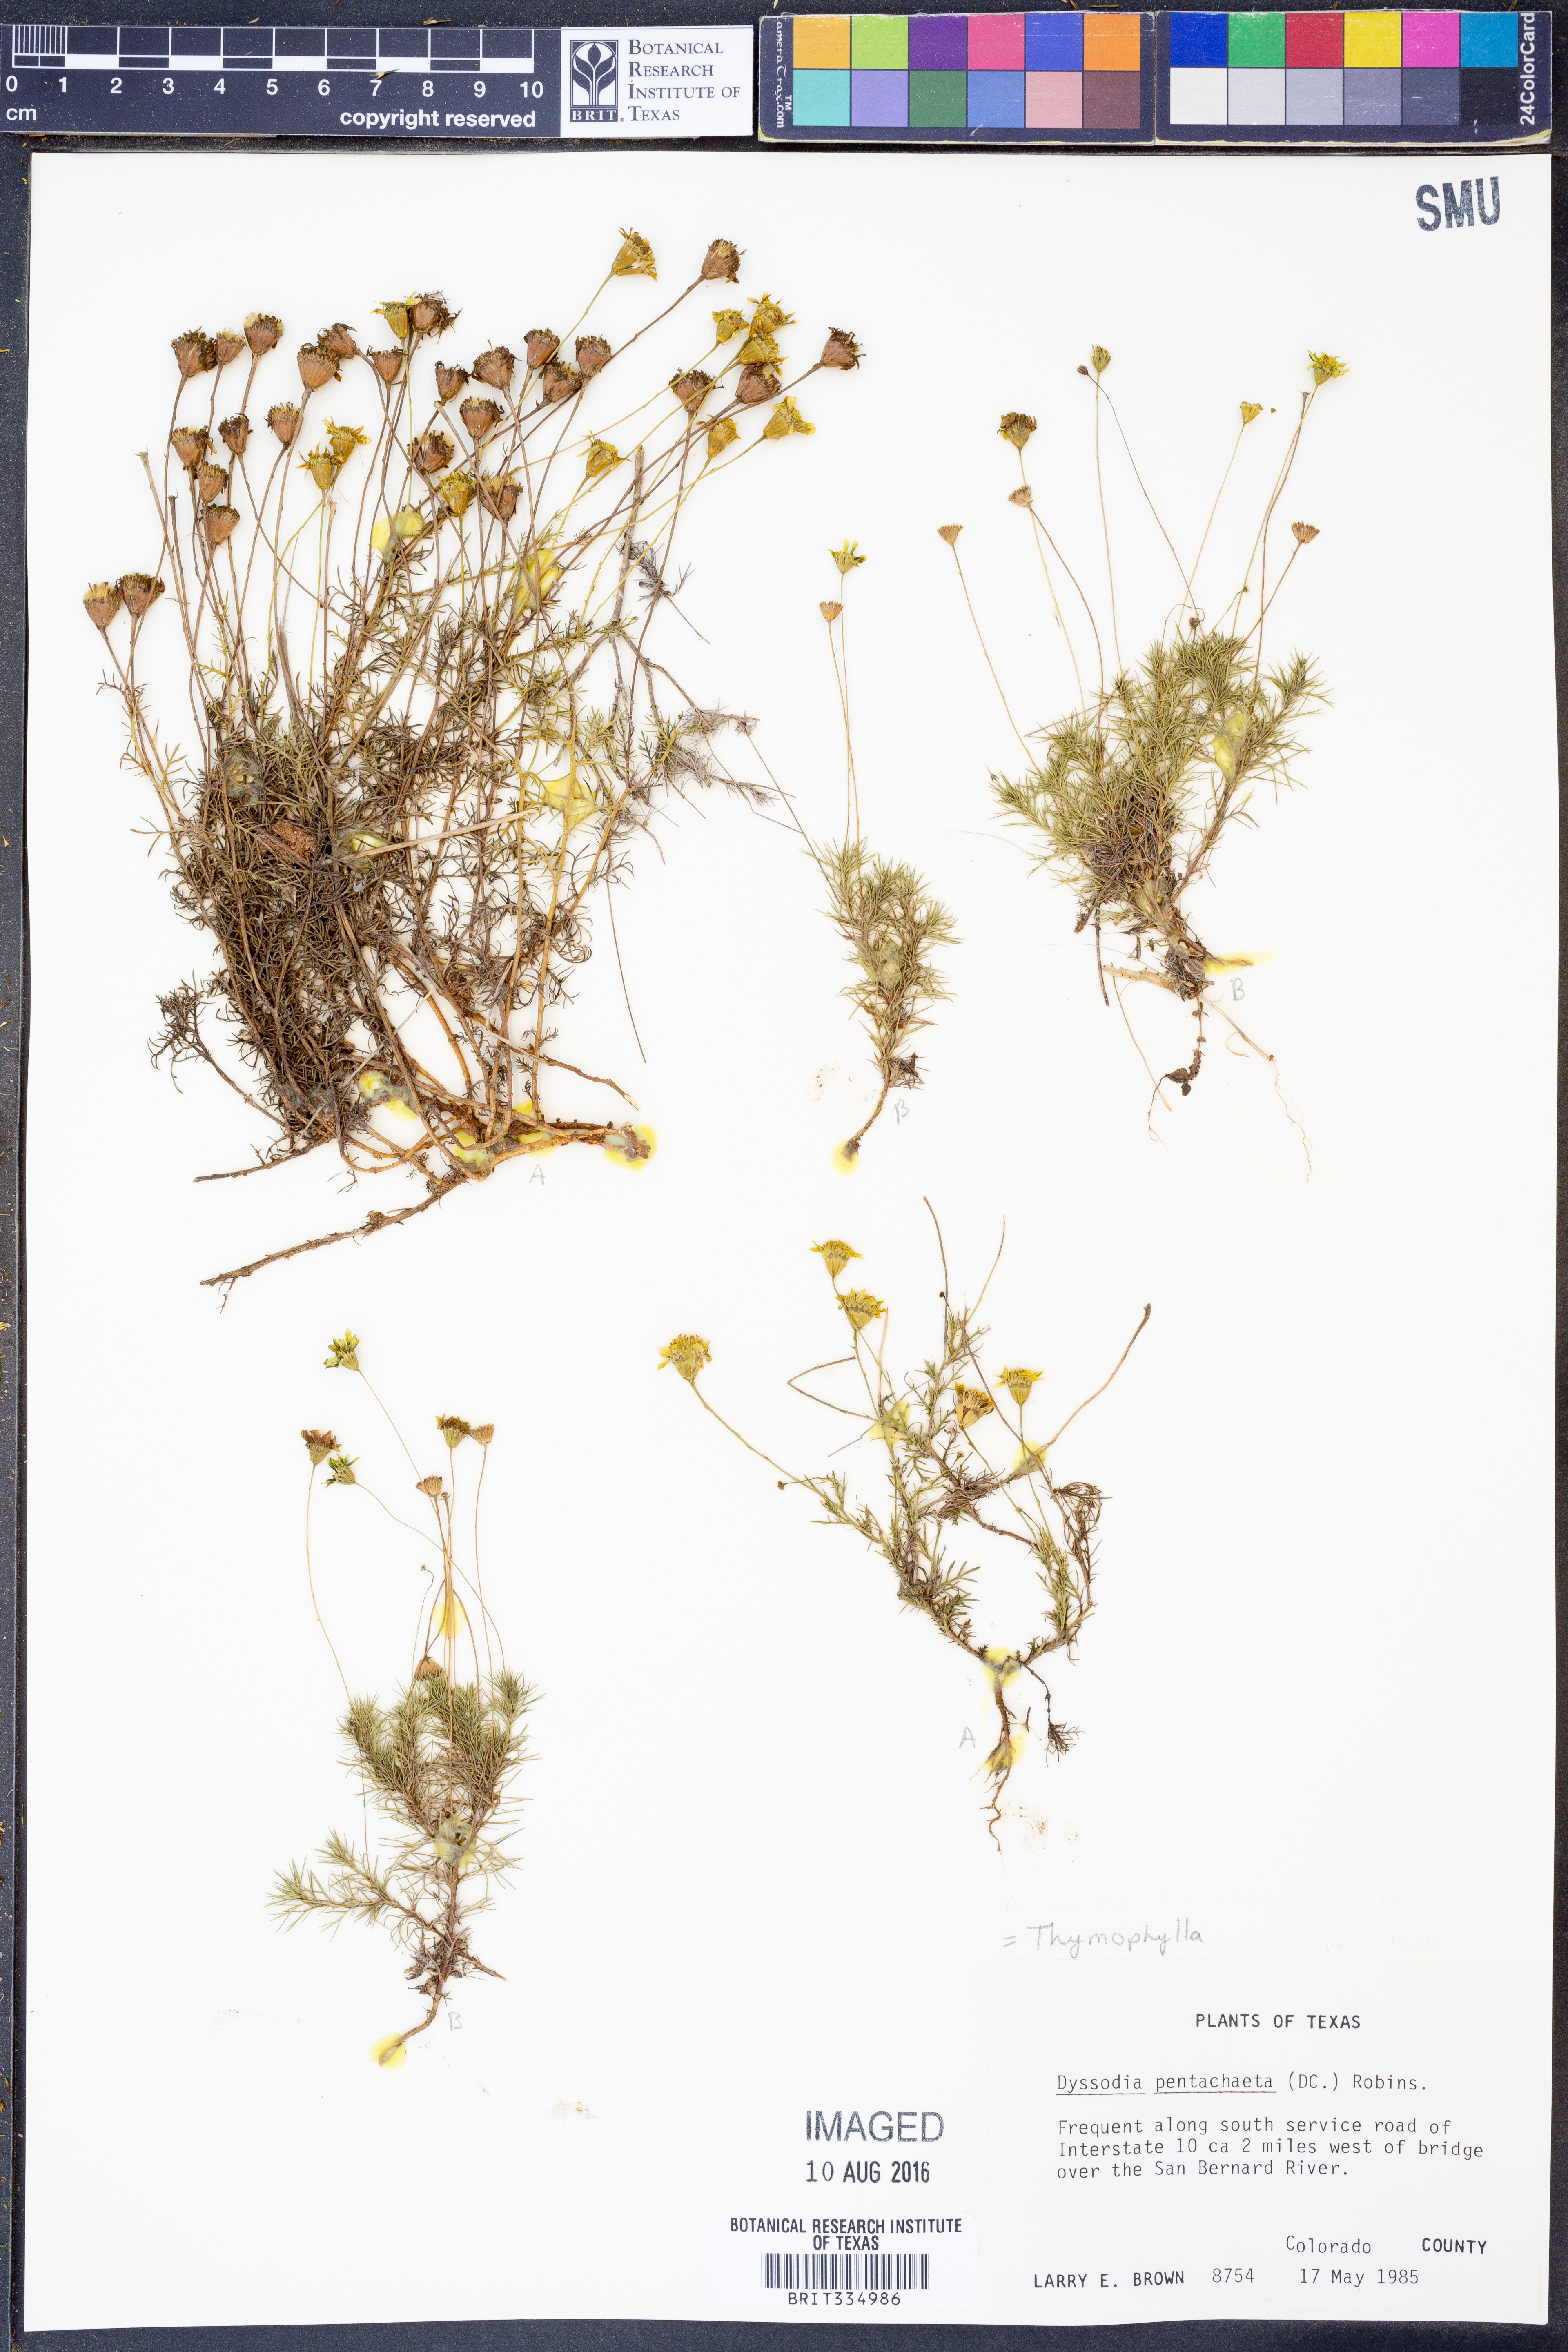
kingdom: Plantae
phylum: Tracheophyta
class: Magnoliopsida
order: Asterales
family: Asteraceae
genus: Thymophylla
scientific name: Thymophylla pentachaeta
